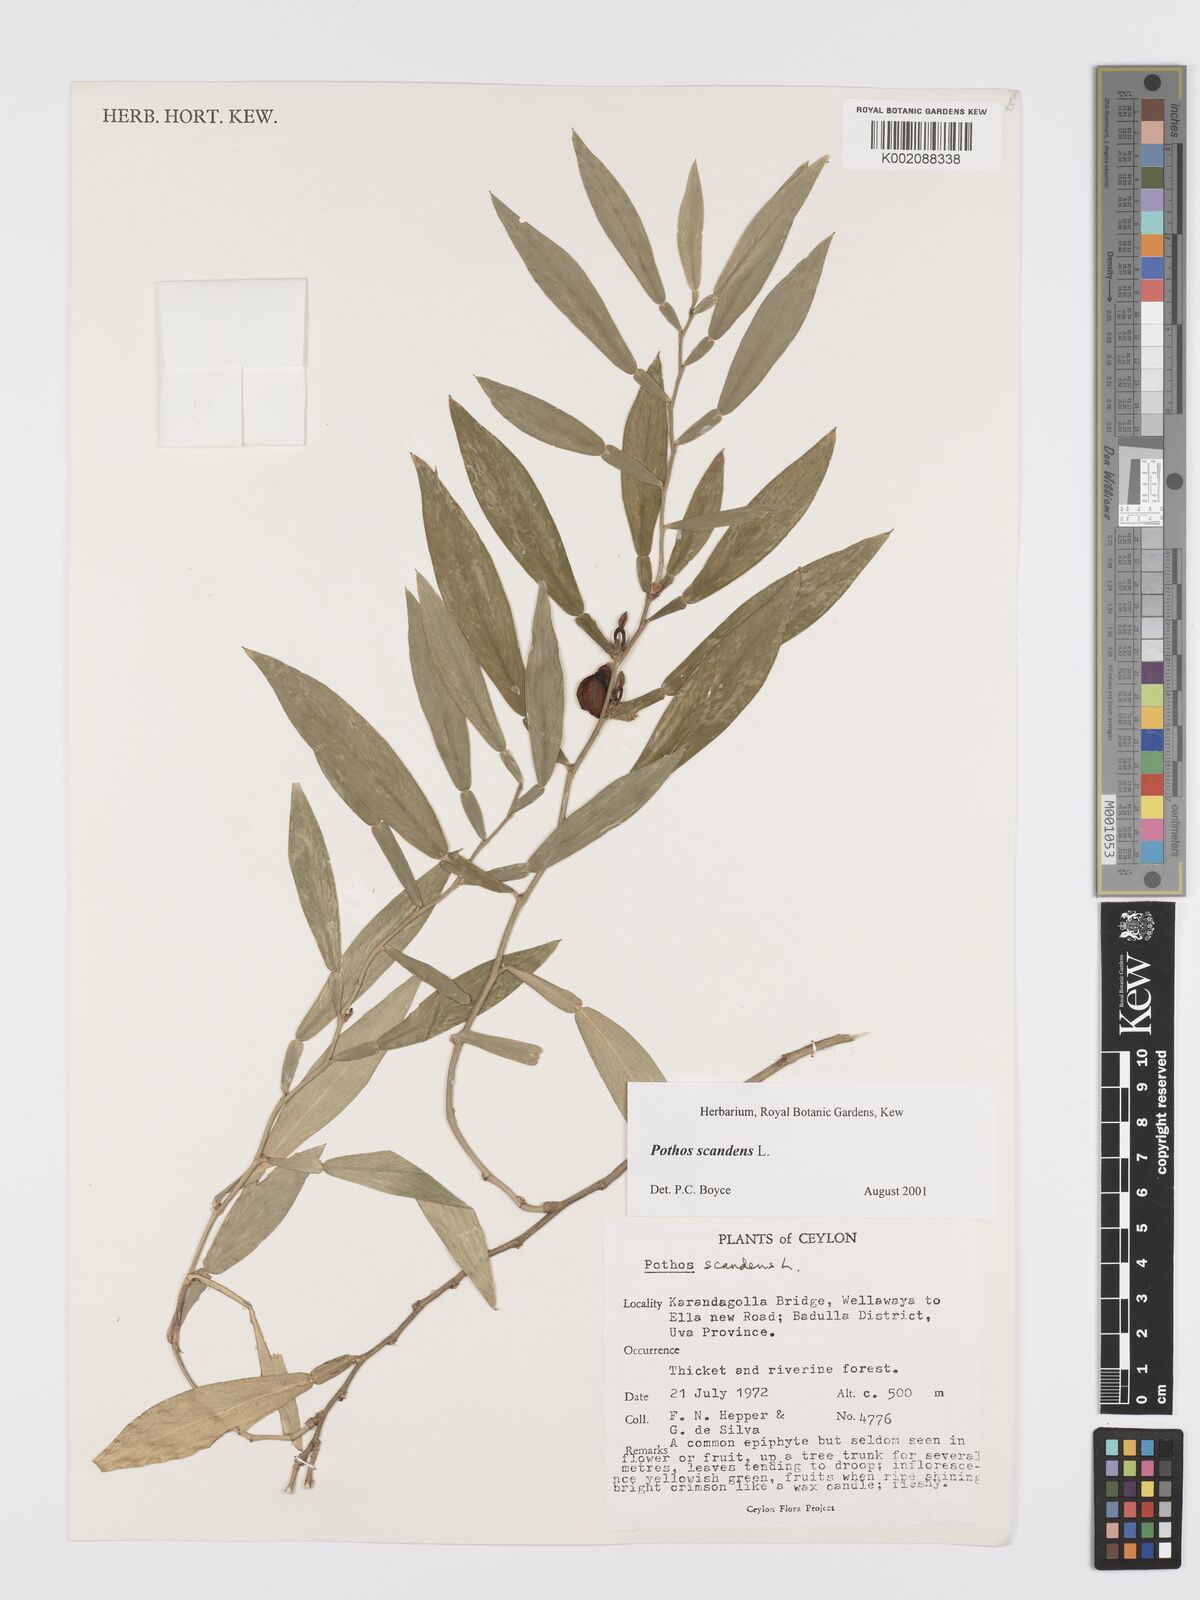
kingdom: Plantae
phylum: Tracheophyta
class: Liliopsida
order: Alismatales
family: Araceae
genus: Pothos
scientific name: Pothos scandens
